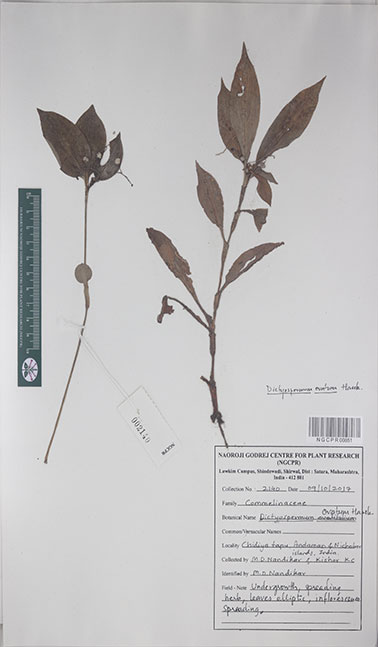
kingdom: Plantae
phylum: Tracheophyta
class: Liliopsida
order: Commelinales
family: Commelinaceae
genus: Dictyospermum
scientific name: Dictyospermum ovatum
